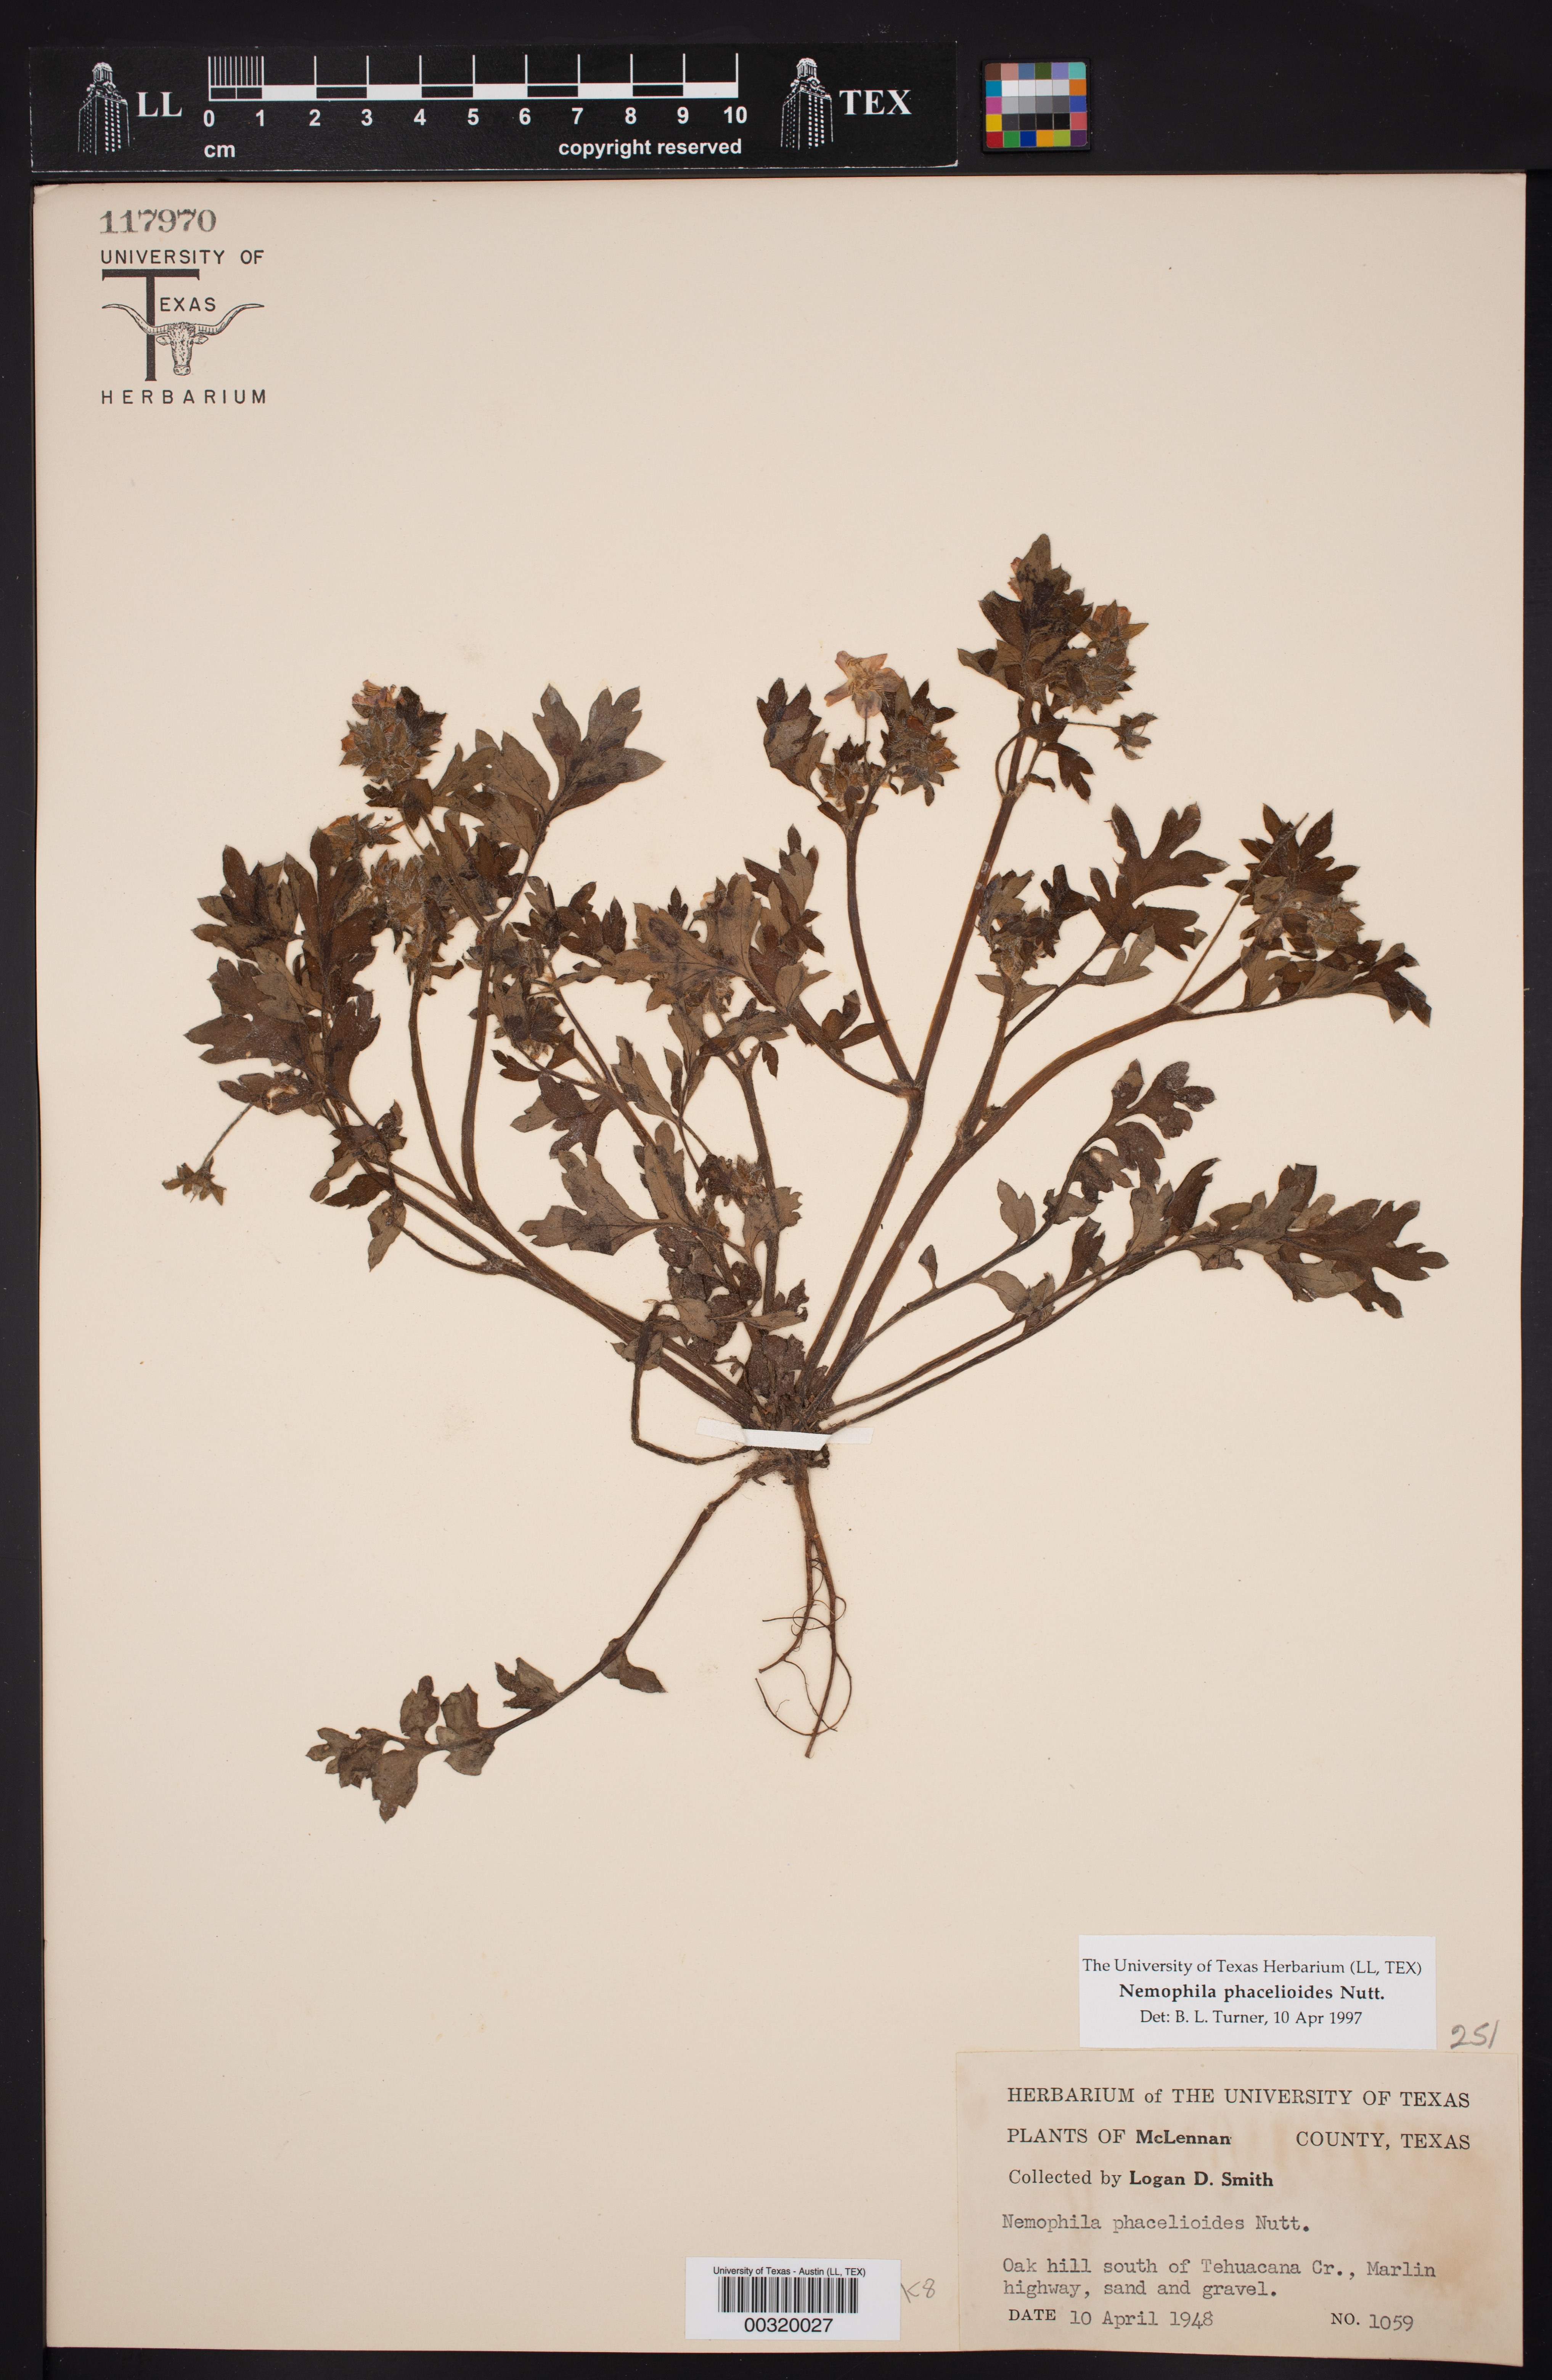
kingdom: Plantae
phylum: Tracheophyta
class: Magnoliopsida
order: Boraginales
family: Hydrophyllaceae
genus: Nemophila
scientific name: Nemophila phacelioides
